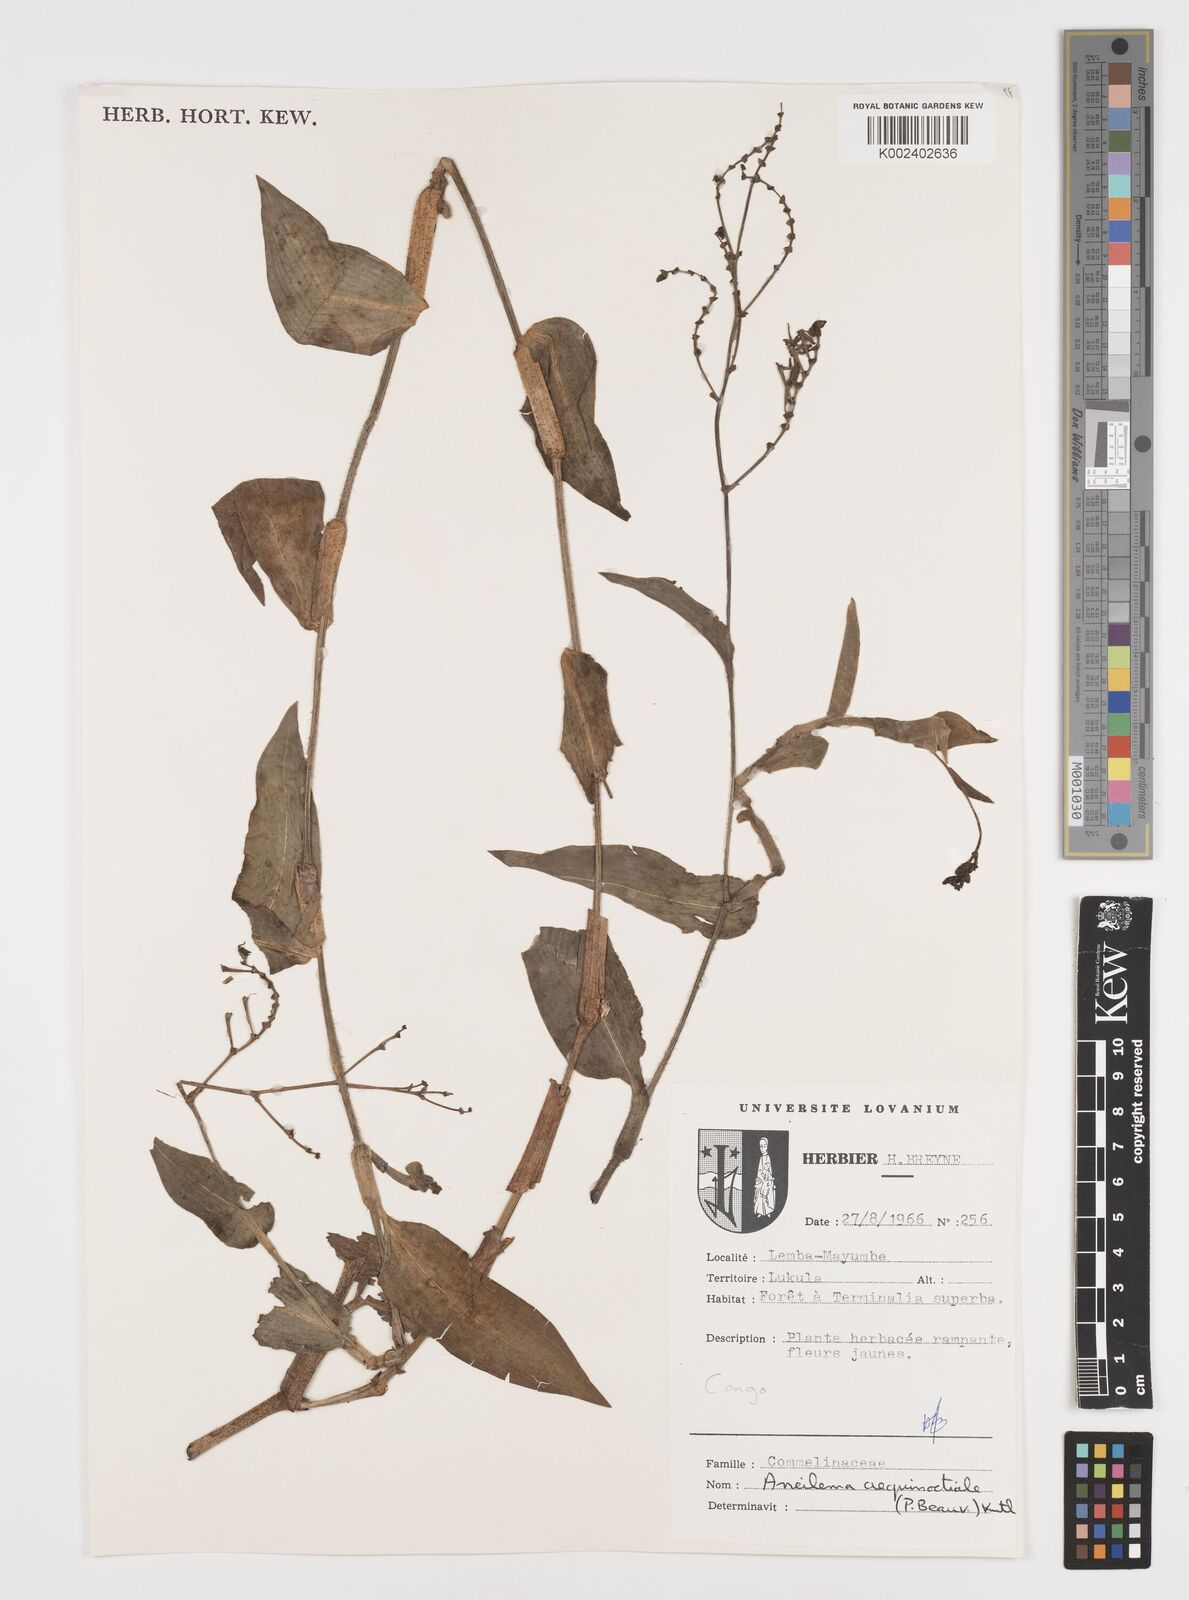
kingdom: Plantae
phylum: Tracheophyta
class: Liliopsida
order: Commelinales
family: Commelinaceae
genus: Aneilema
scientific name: Aneilema aequinoctiale
